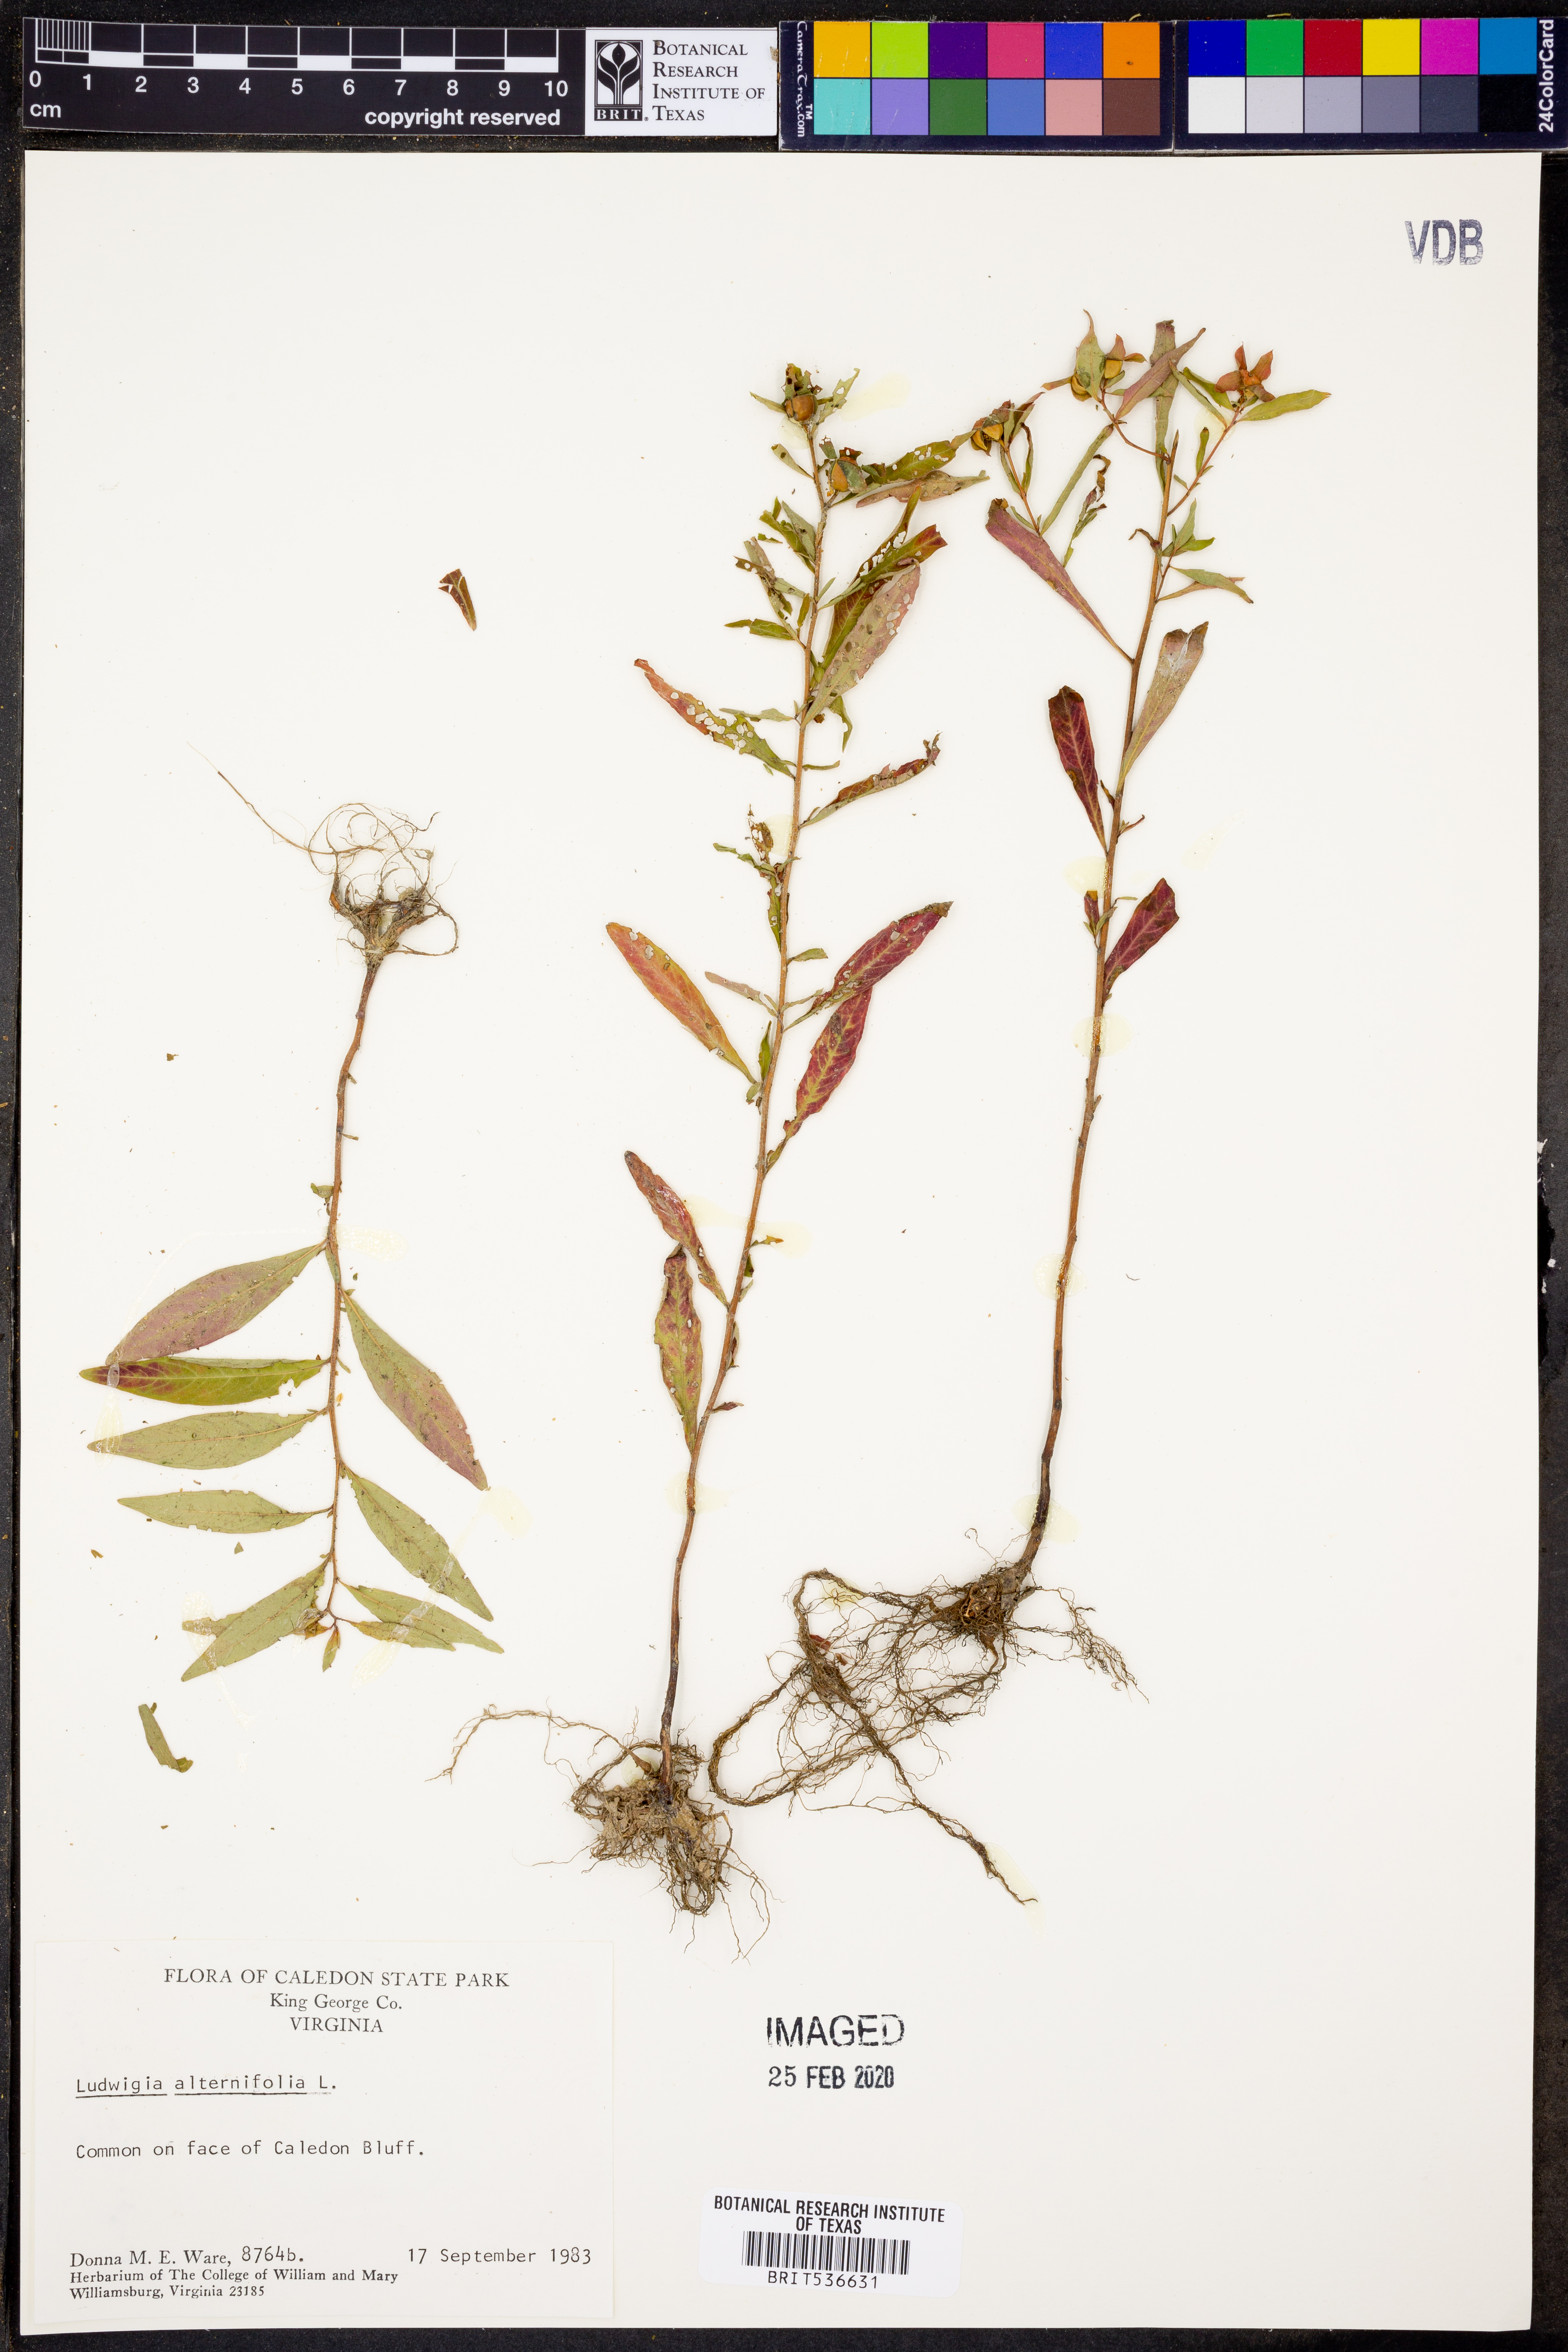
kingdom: Plantae
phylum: Tracheophyta
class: Magnoliopsida
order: Myrtales
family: Onagraceae
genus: Ludwigia
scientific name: Ludwigia alternifolia
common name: Rattlebox
